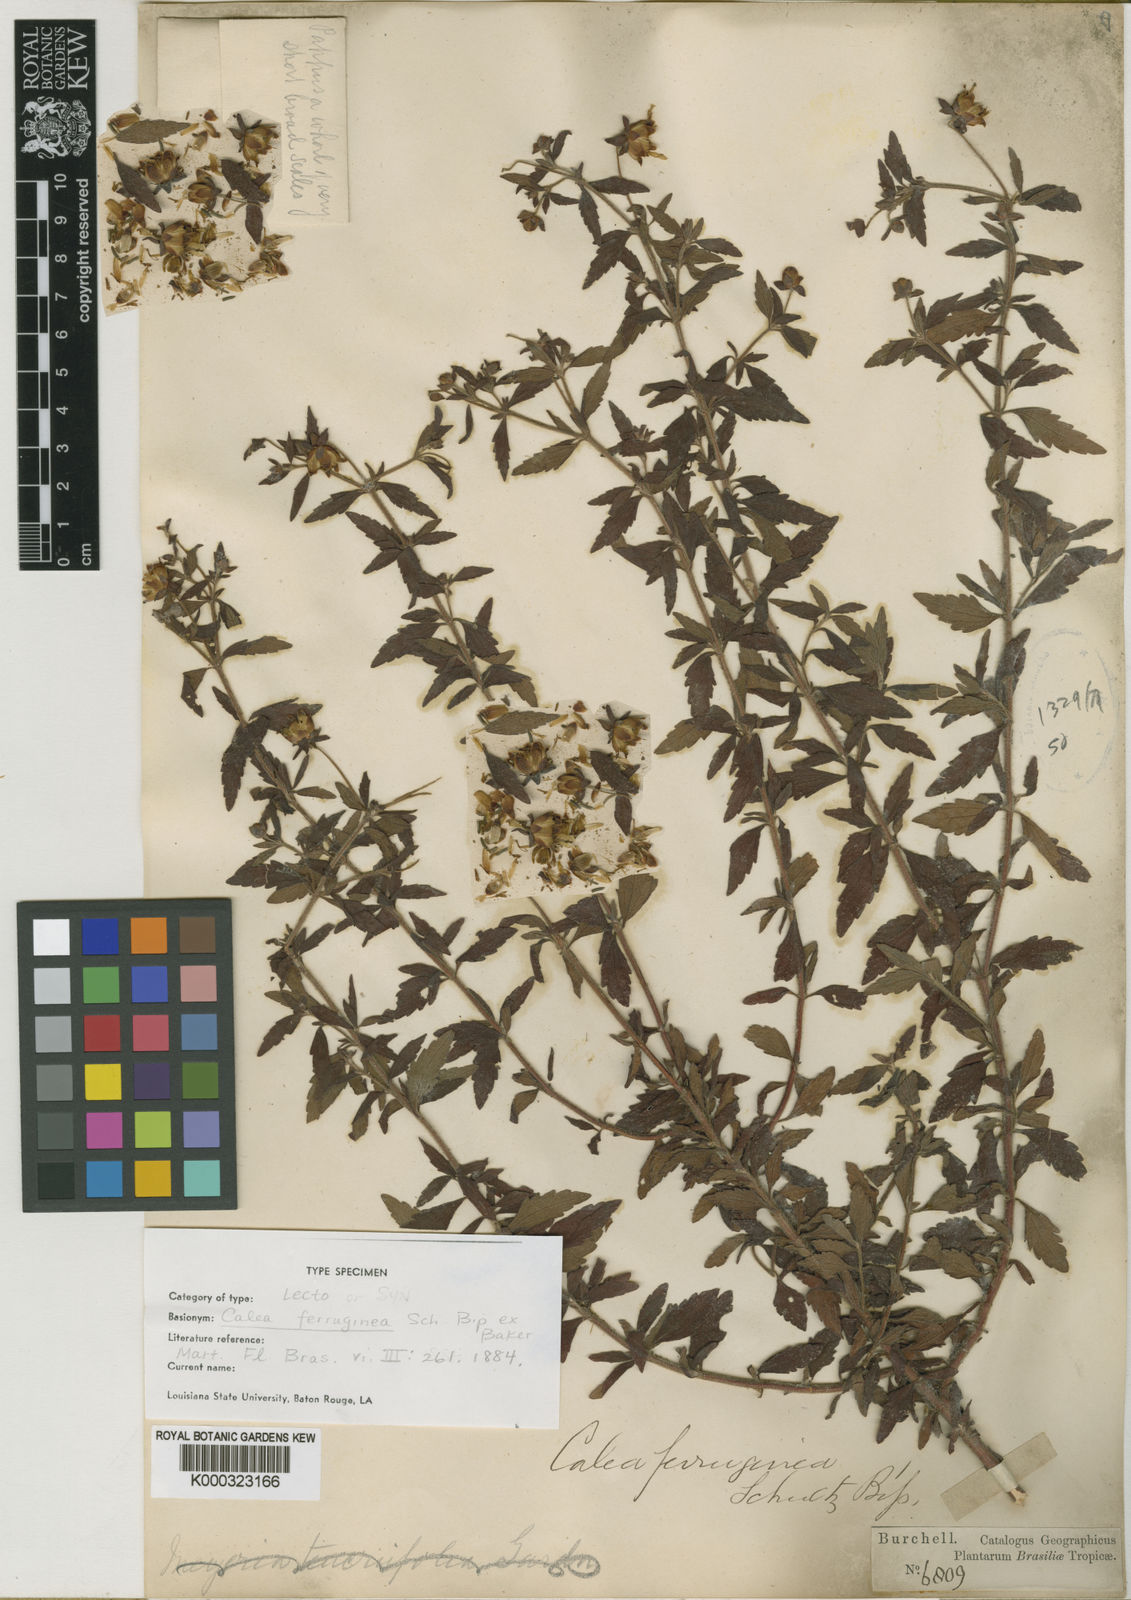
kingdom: Plantae
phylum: Tracheophyta
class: Magnoliopsida
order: Asterales
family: Asteraceae
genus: Calea
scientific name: Calea ferruginea
